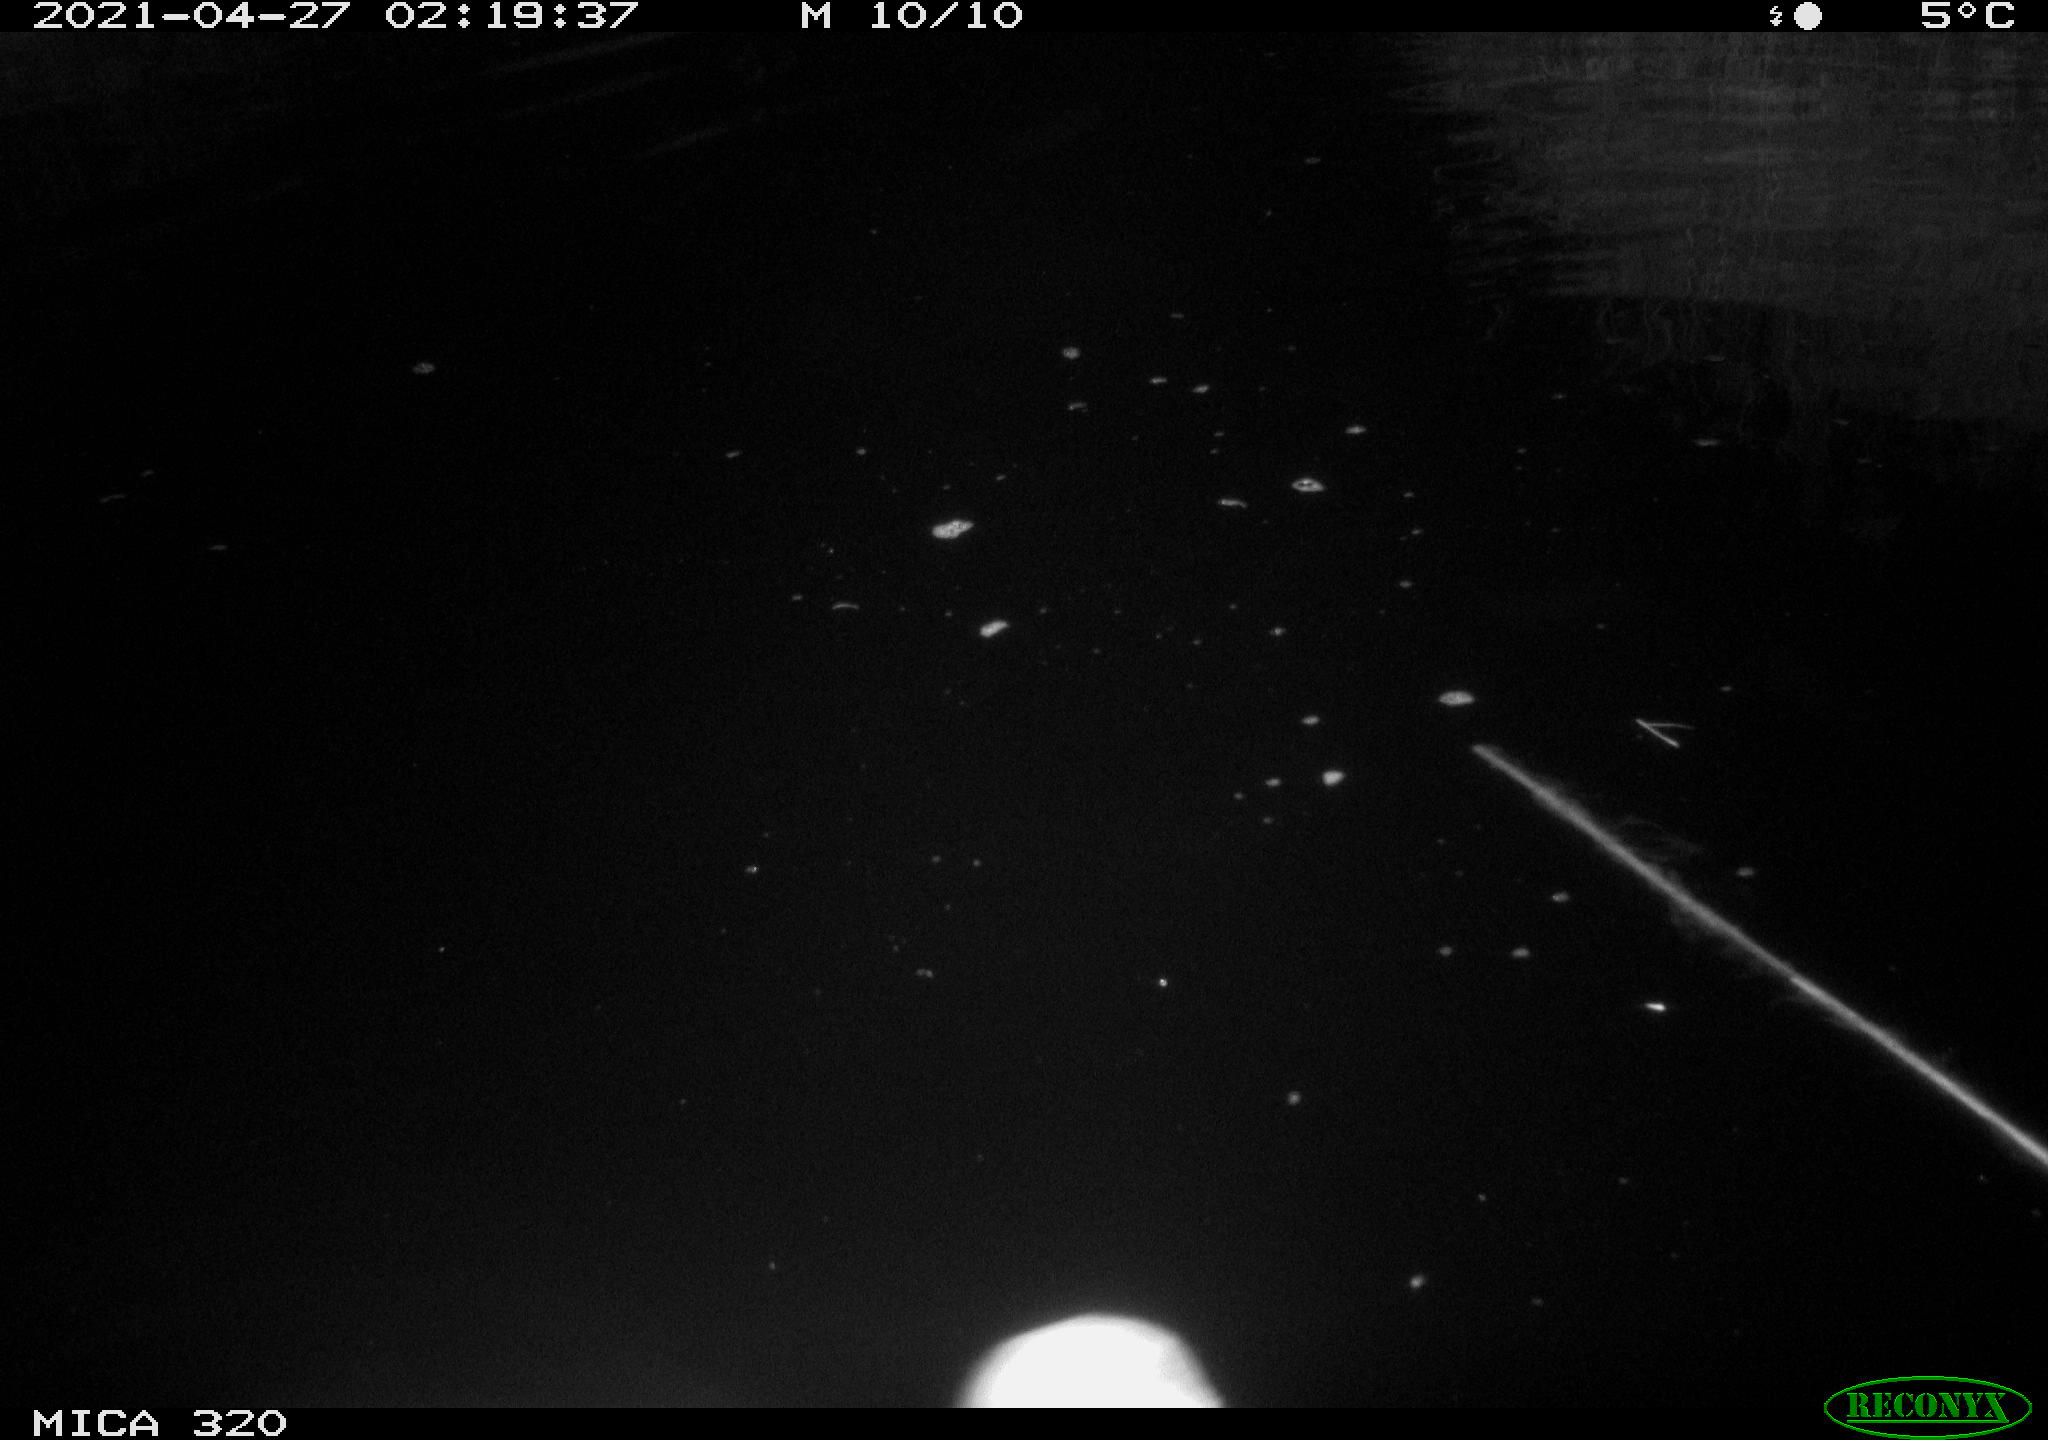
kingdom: Animalia
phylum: Chordata
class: Aves
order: Anseriformes
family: Anatidae
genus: Mareca
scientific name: Mareca strepera
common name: Gadwall
